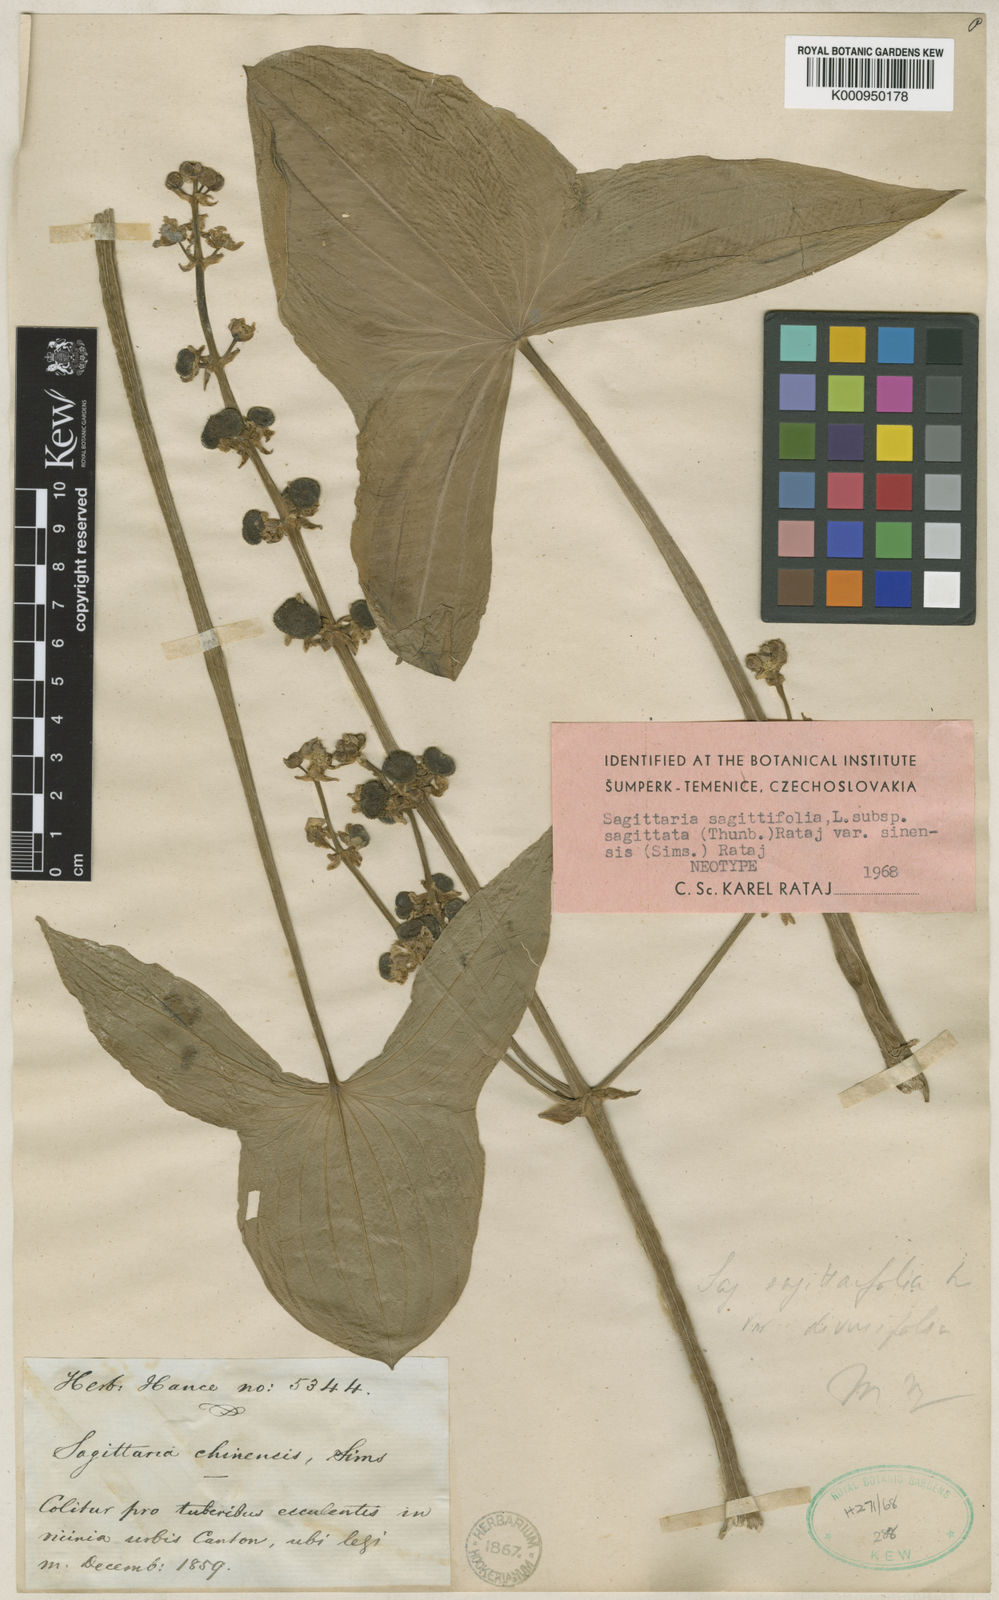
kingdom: Plantae
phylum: Tracheophyta
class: Liliopsida
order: Alismatales
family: Alismataceae
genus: Sagittaria
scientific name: Sagittaria sagittifolia
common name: Arrowhead
